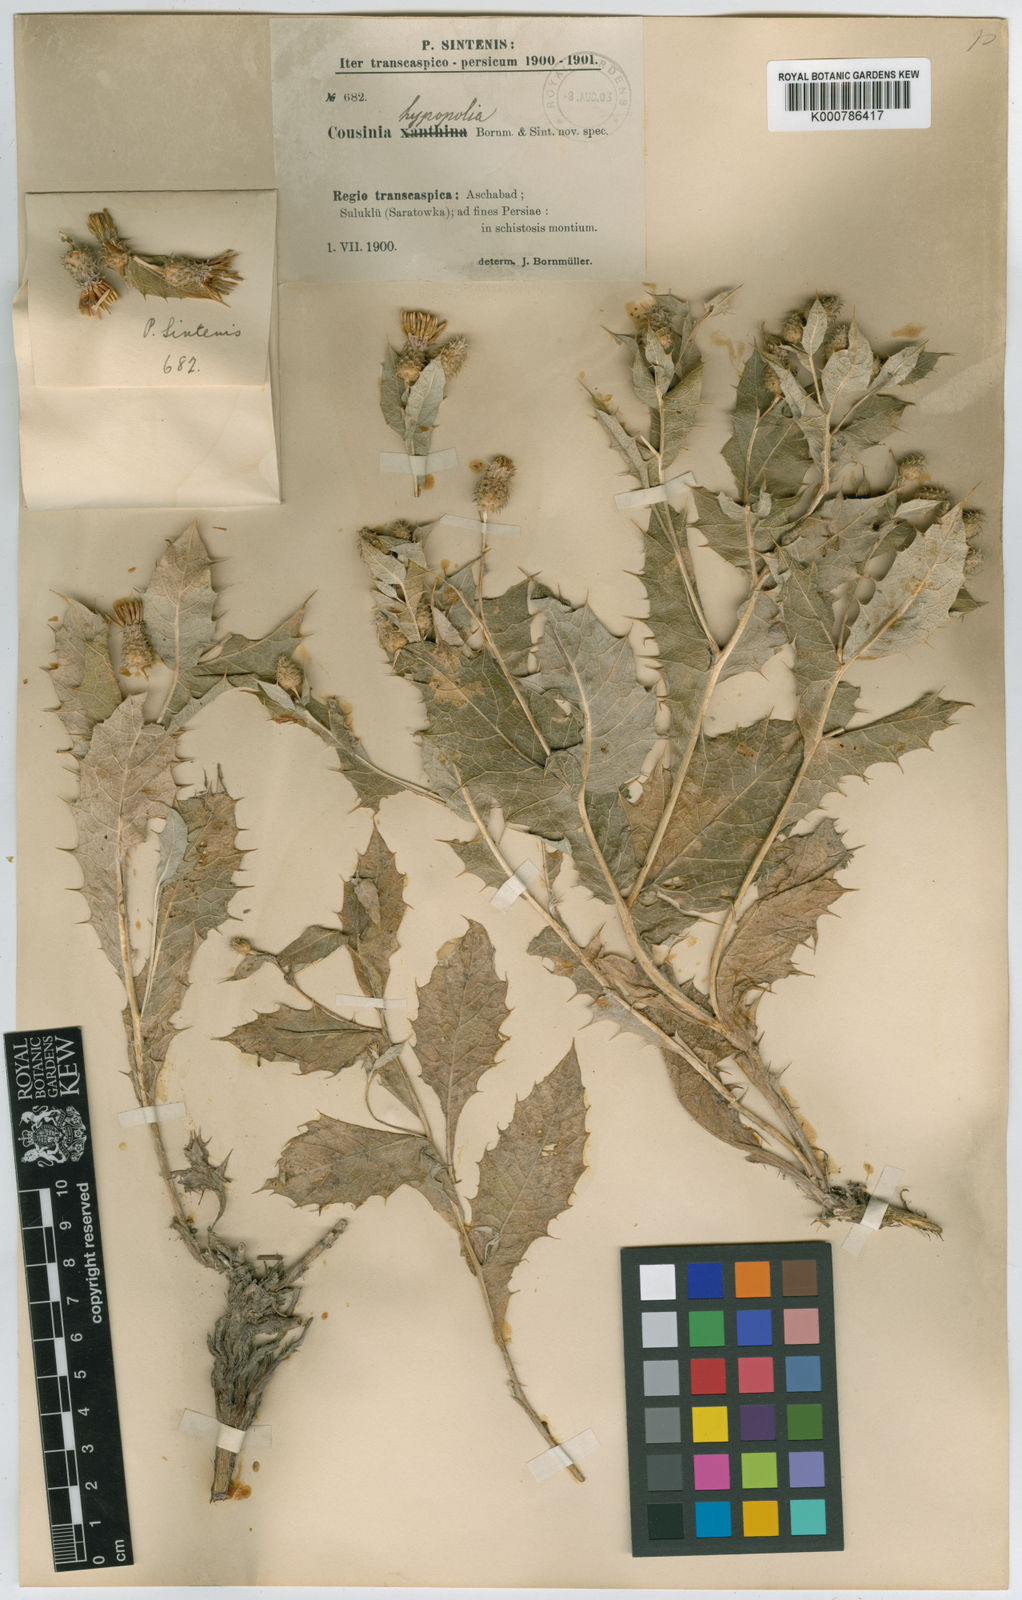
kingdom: Plantae
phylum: Tracheophyta
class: Magnoliopsida
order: Asterales
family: Asteraceae
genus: Cousinia
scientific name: Cousinia hypopolia
